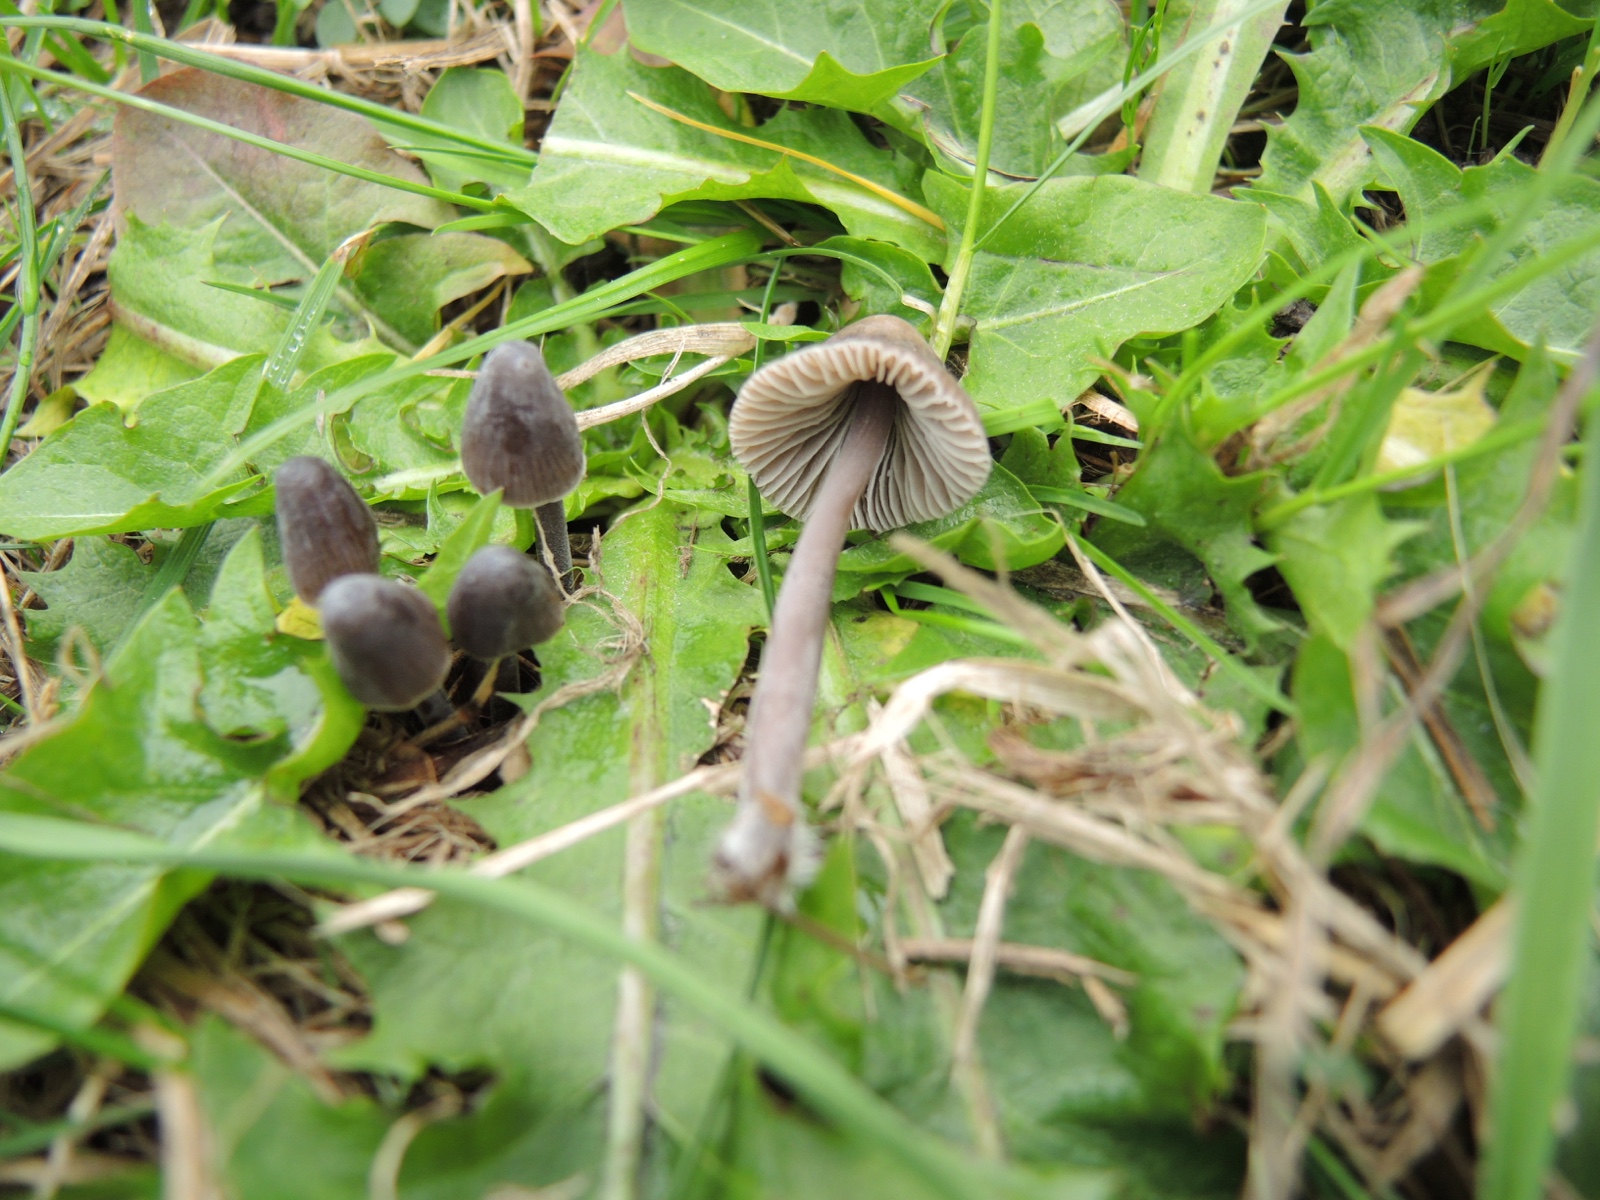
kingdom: Fungi
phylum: Basidiomycota
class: Agaricomycetes
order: Agaricales
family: Mycenaceae
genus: Mycena
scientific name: Mycena leptocephala
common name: klor-huesvamp
